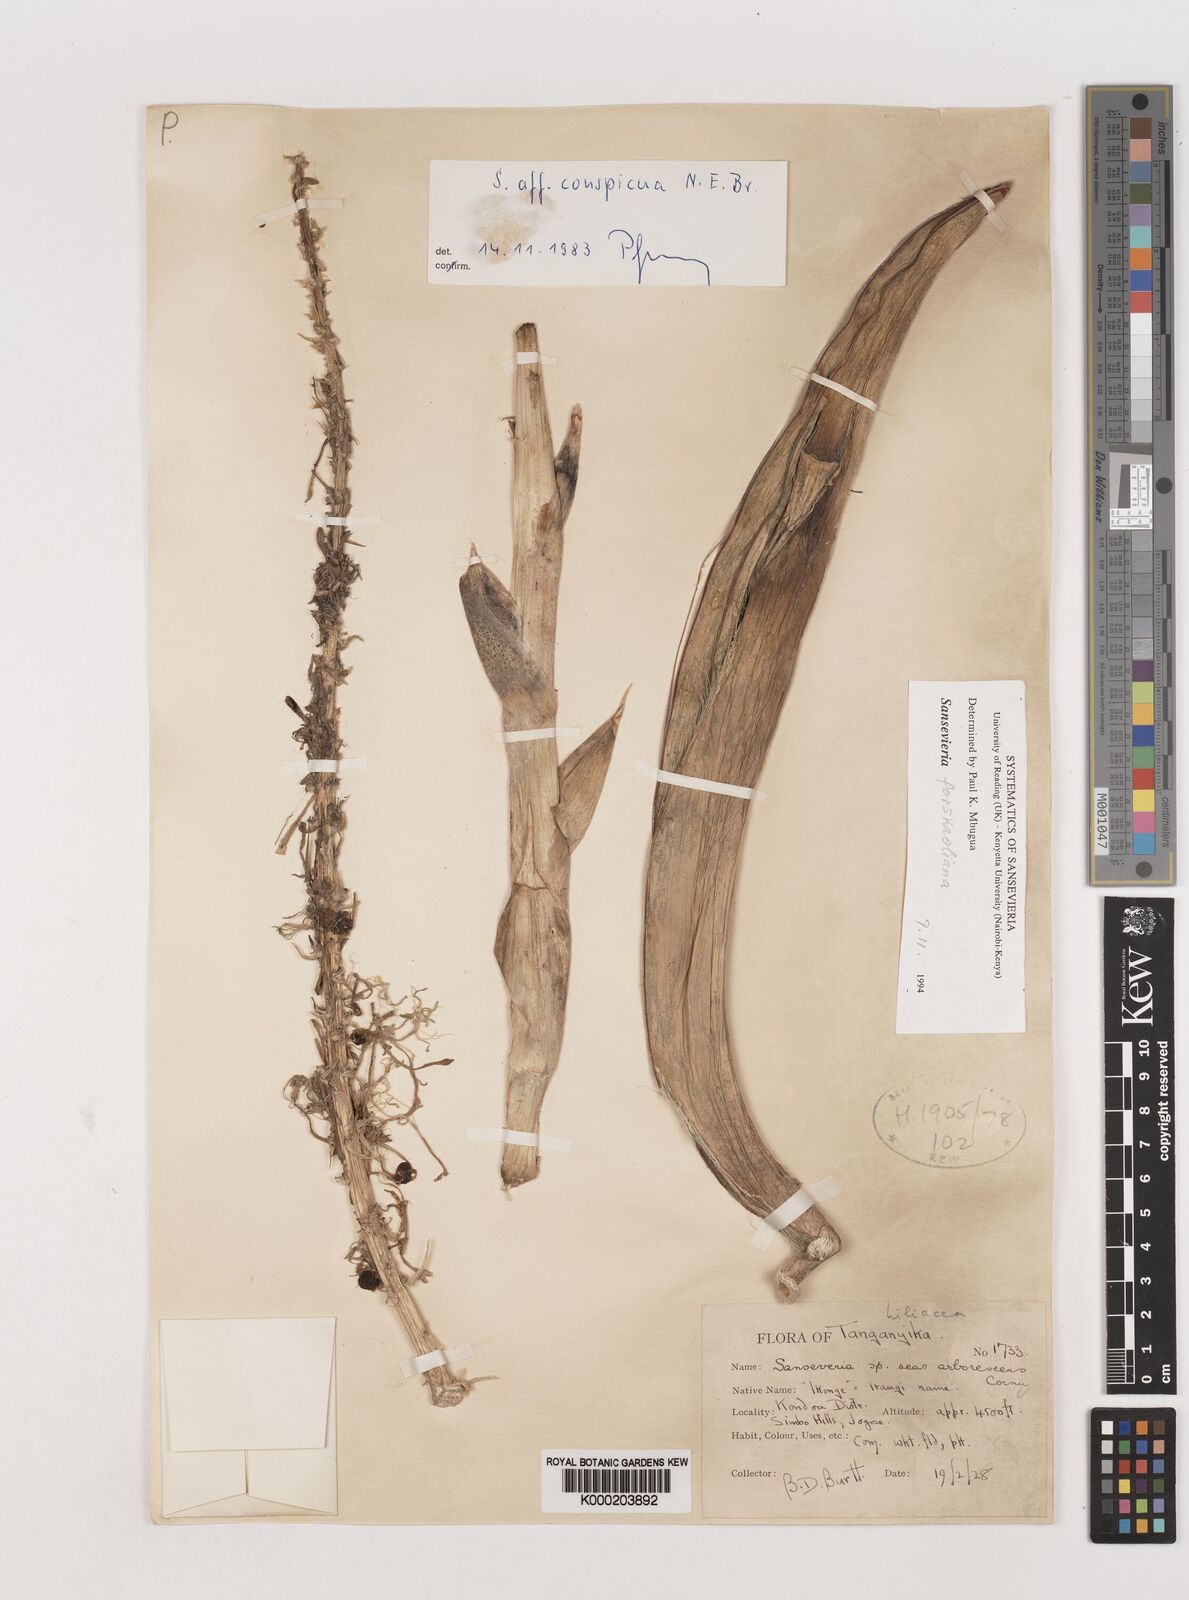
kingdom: Plantae
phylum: Tracheophyta
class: Liliopsida
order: Asparagales
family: Asparagaceae
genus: Dracaena
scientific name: Dracaena conspicua
